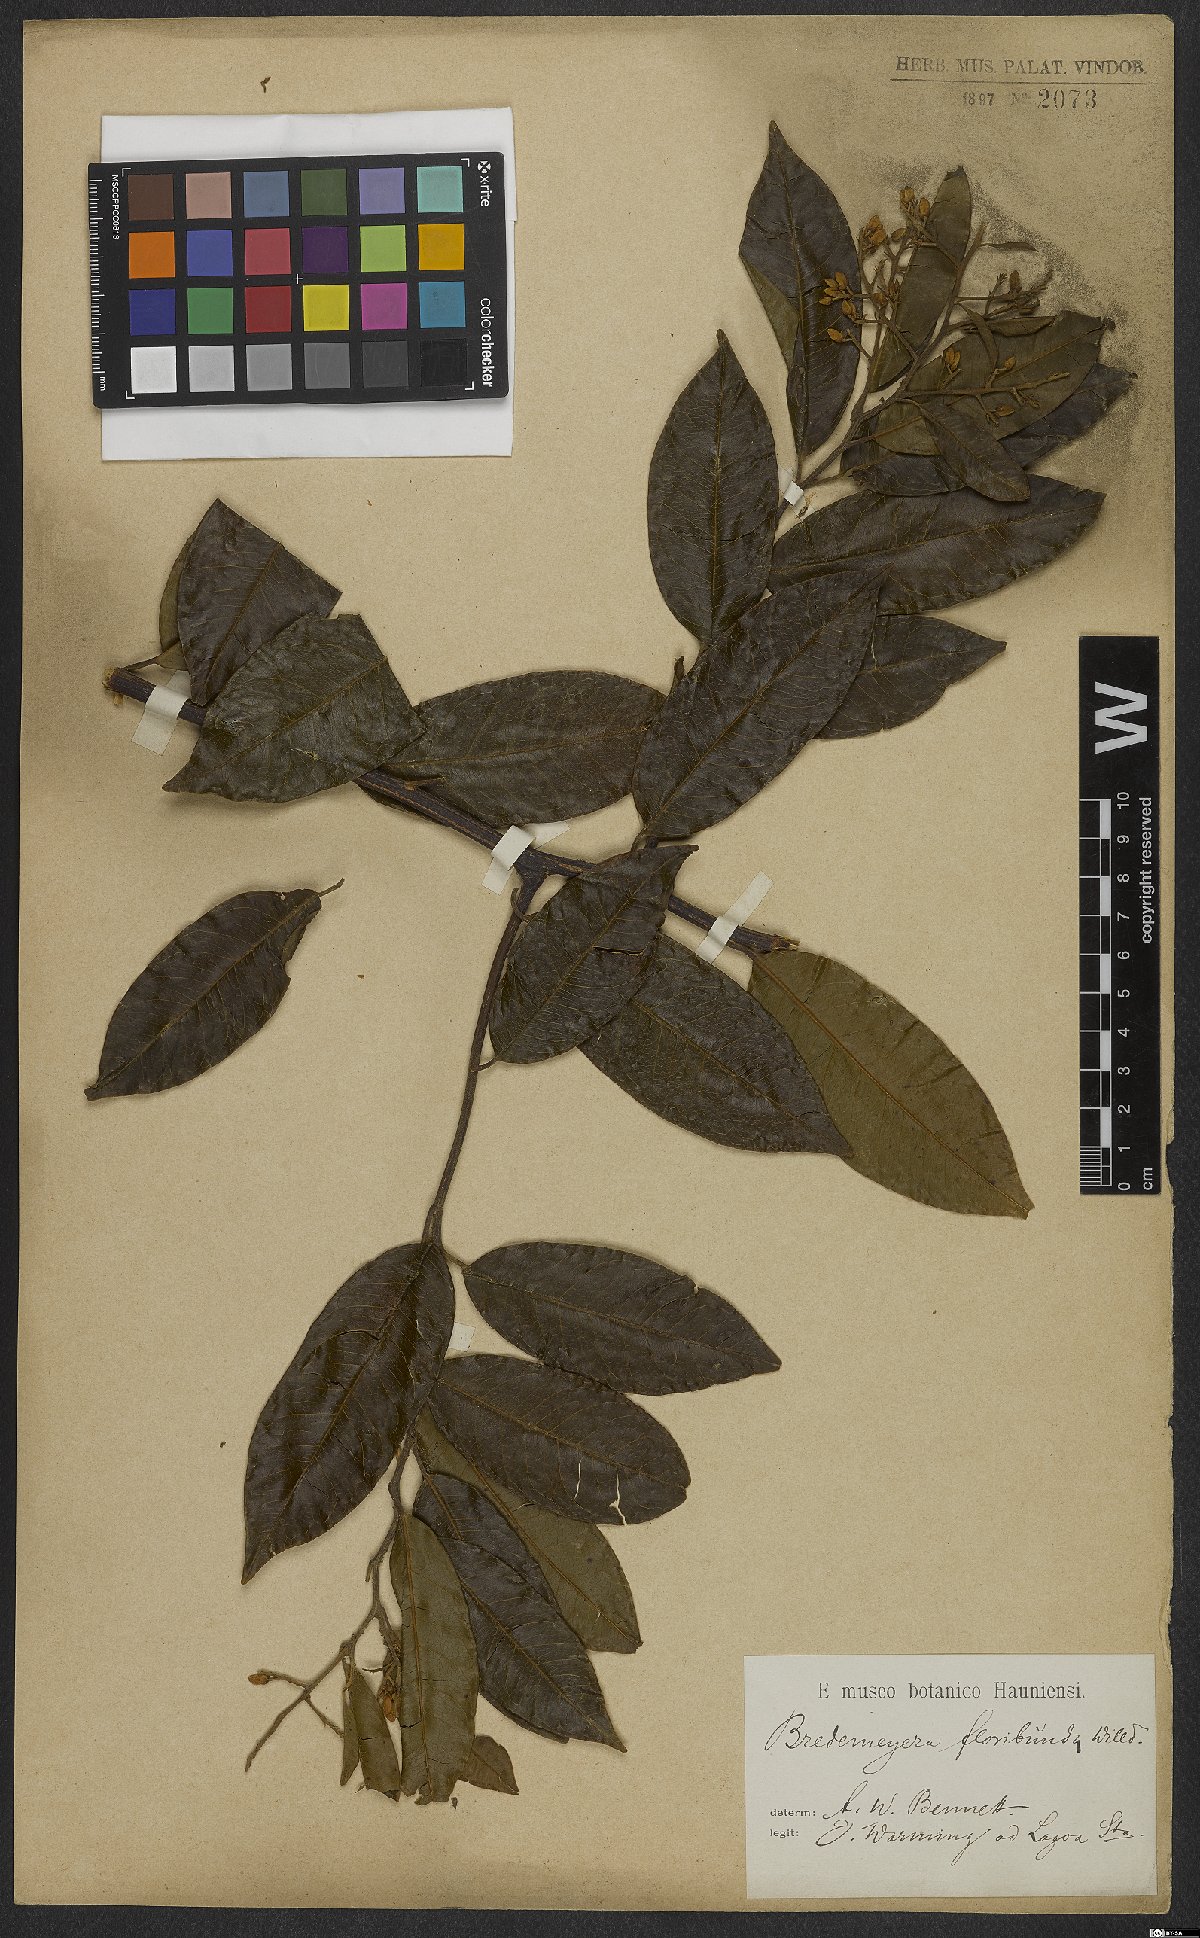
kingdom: Plantae
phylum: Tracheophyta
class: Magnoliopsida
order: Fabales
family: Polygalaceae
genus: Bredemeyera
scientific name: Bredemeyera floribunda
